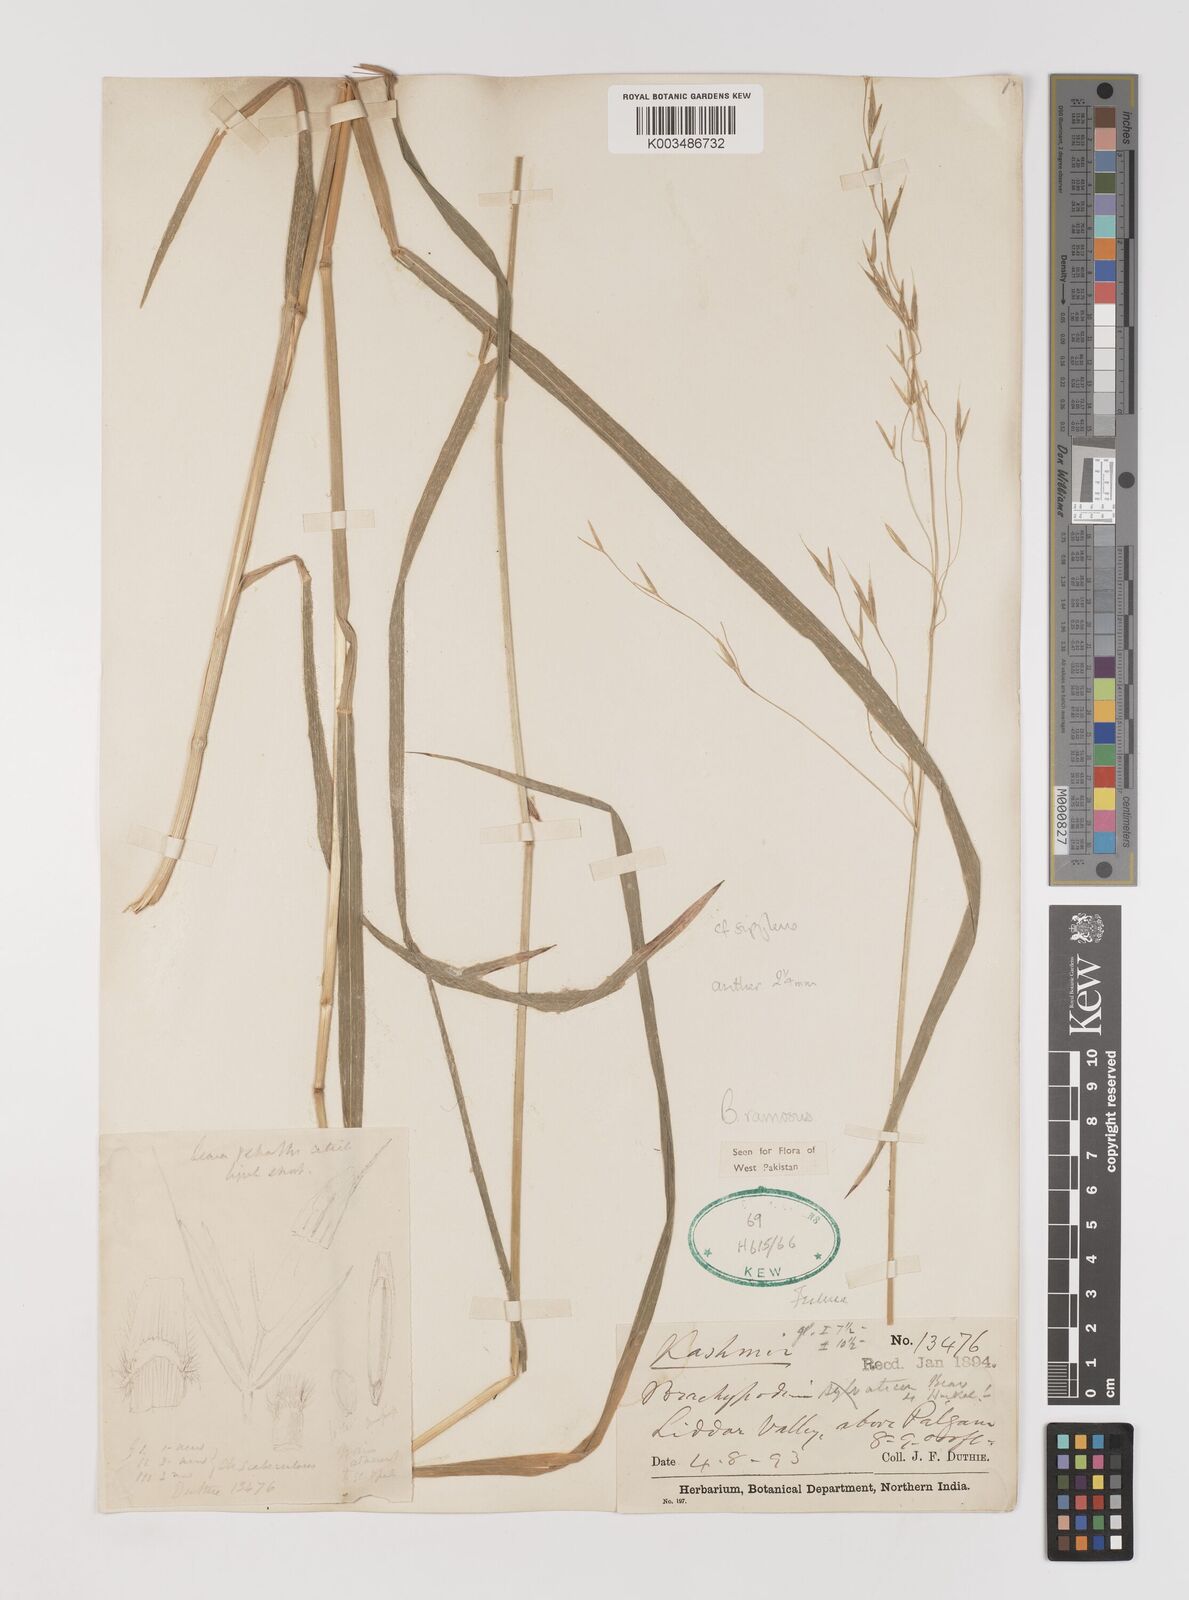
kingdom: Plantae
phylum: Tracheophyta
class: Liliopsida
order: Poales
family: Poaceae
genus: Brachypodium
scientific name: Brachypodium retusum
